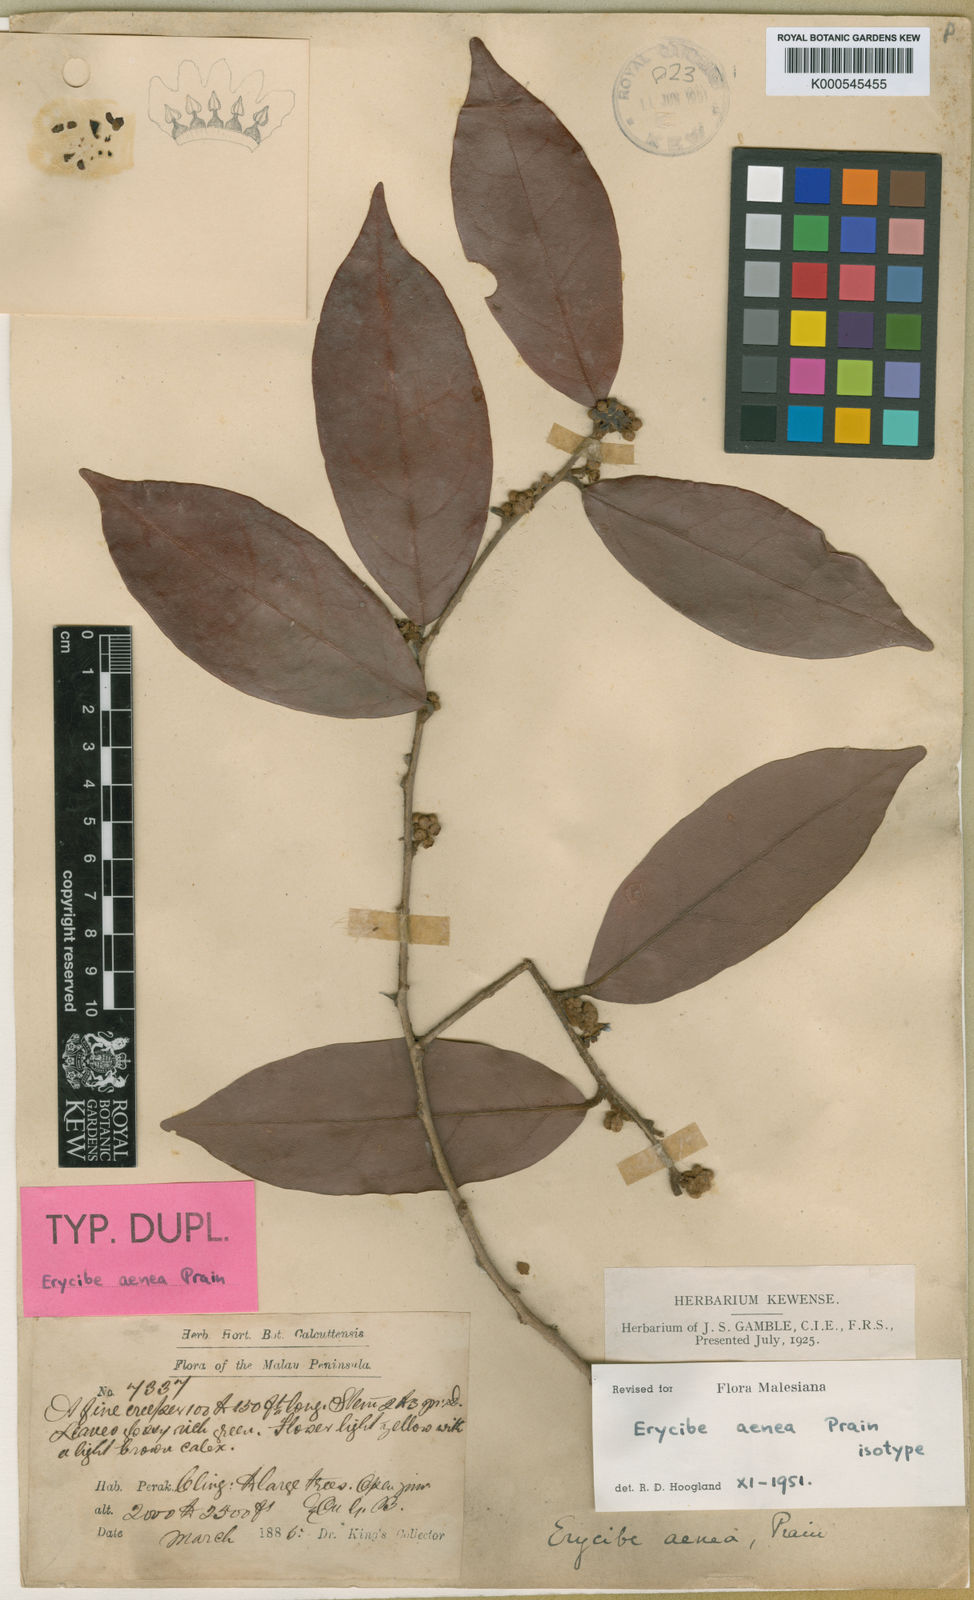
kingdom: Plantae
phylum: Tracheophyta
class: Magnoliopsida
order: Solanales
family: Convolvulaceae
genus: Erycibe
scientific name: Erycibe aenea
